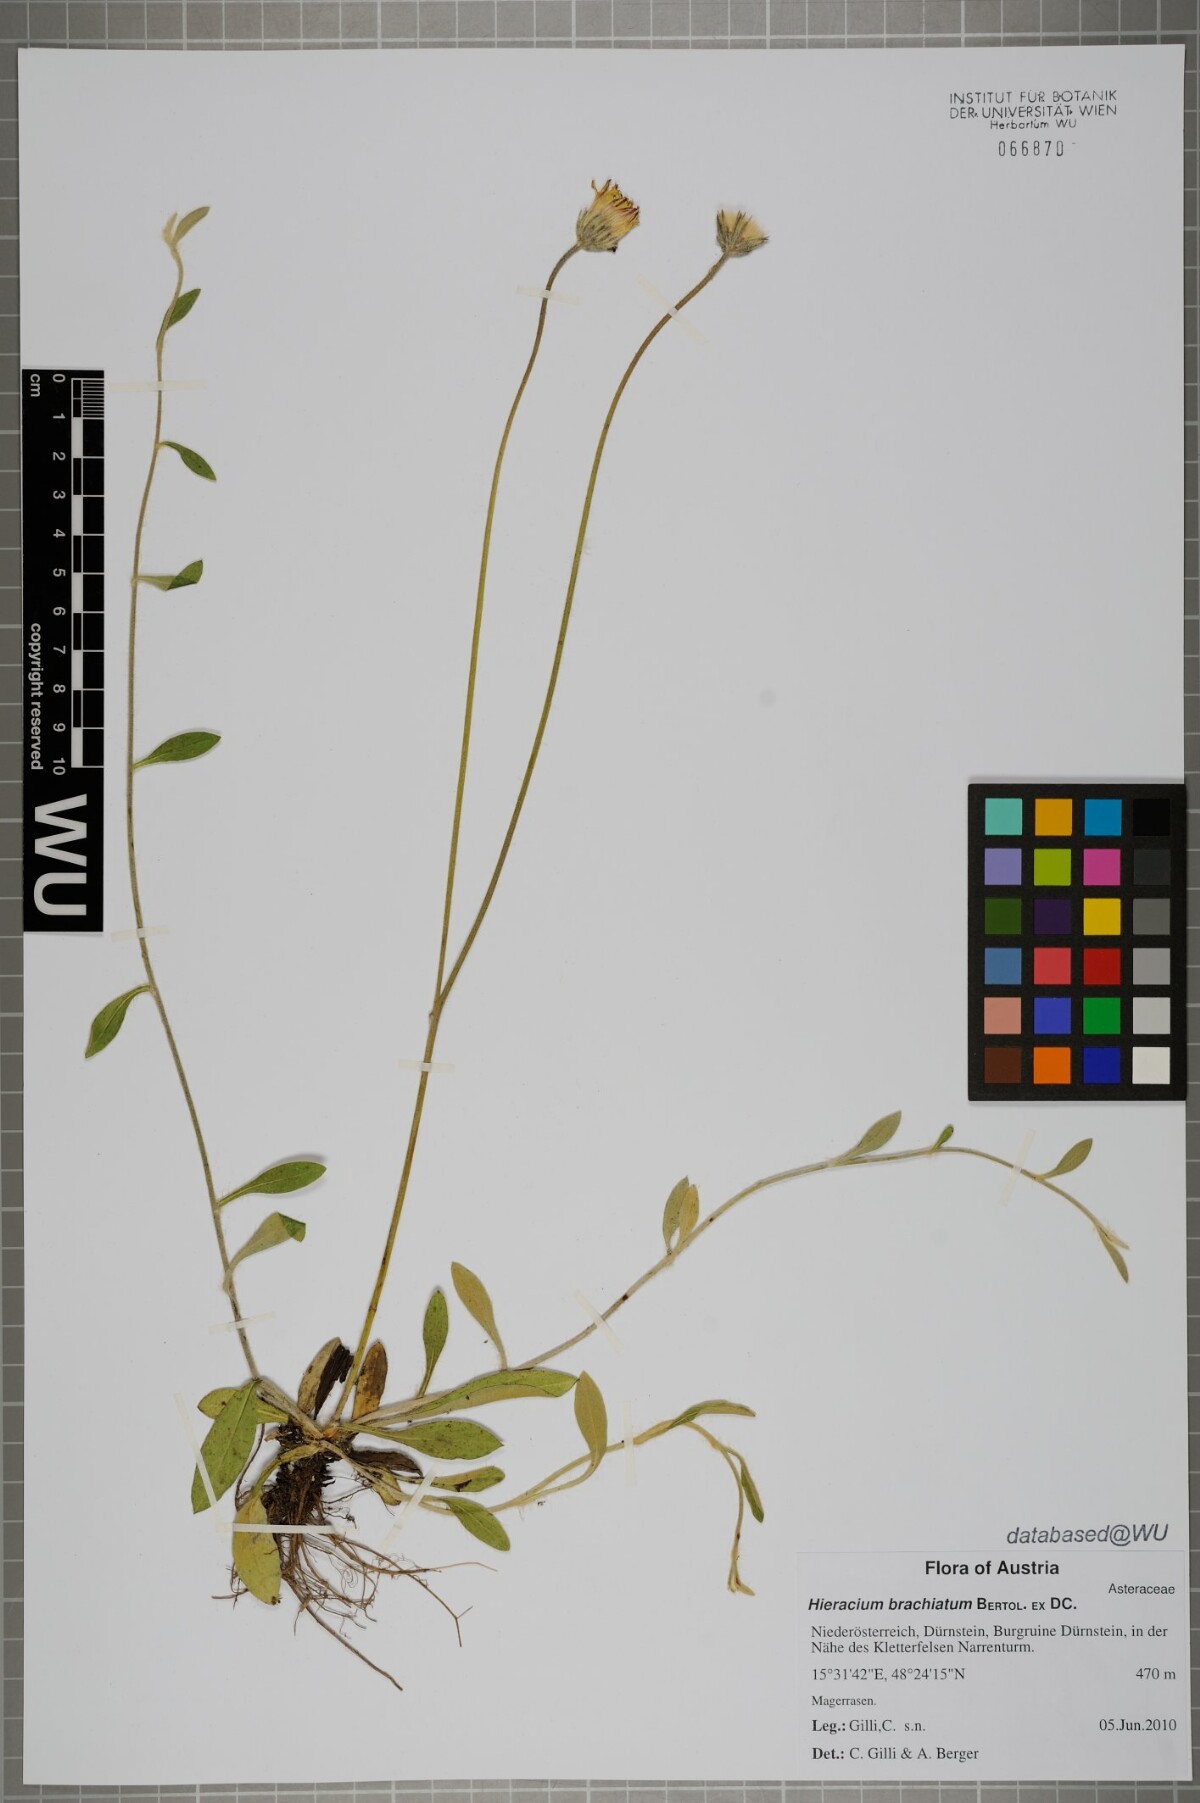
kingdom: Plantae
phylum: Tracheophyta
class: Magnoliopsida
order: Asterales
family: Asteraceae
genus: Pilosella
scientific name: Pilosella acutifolia
